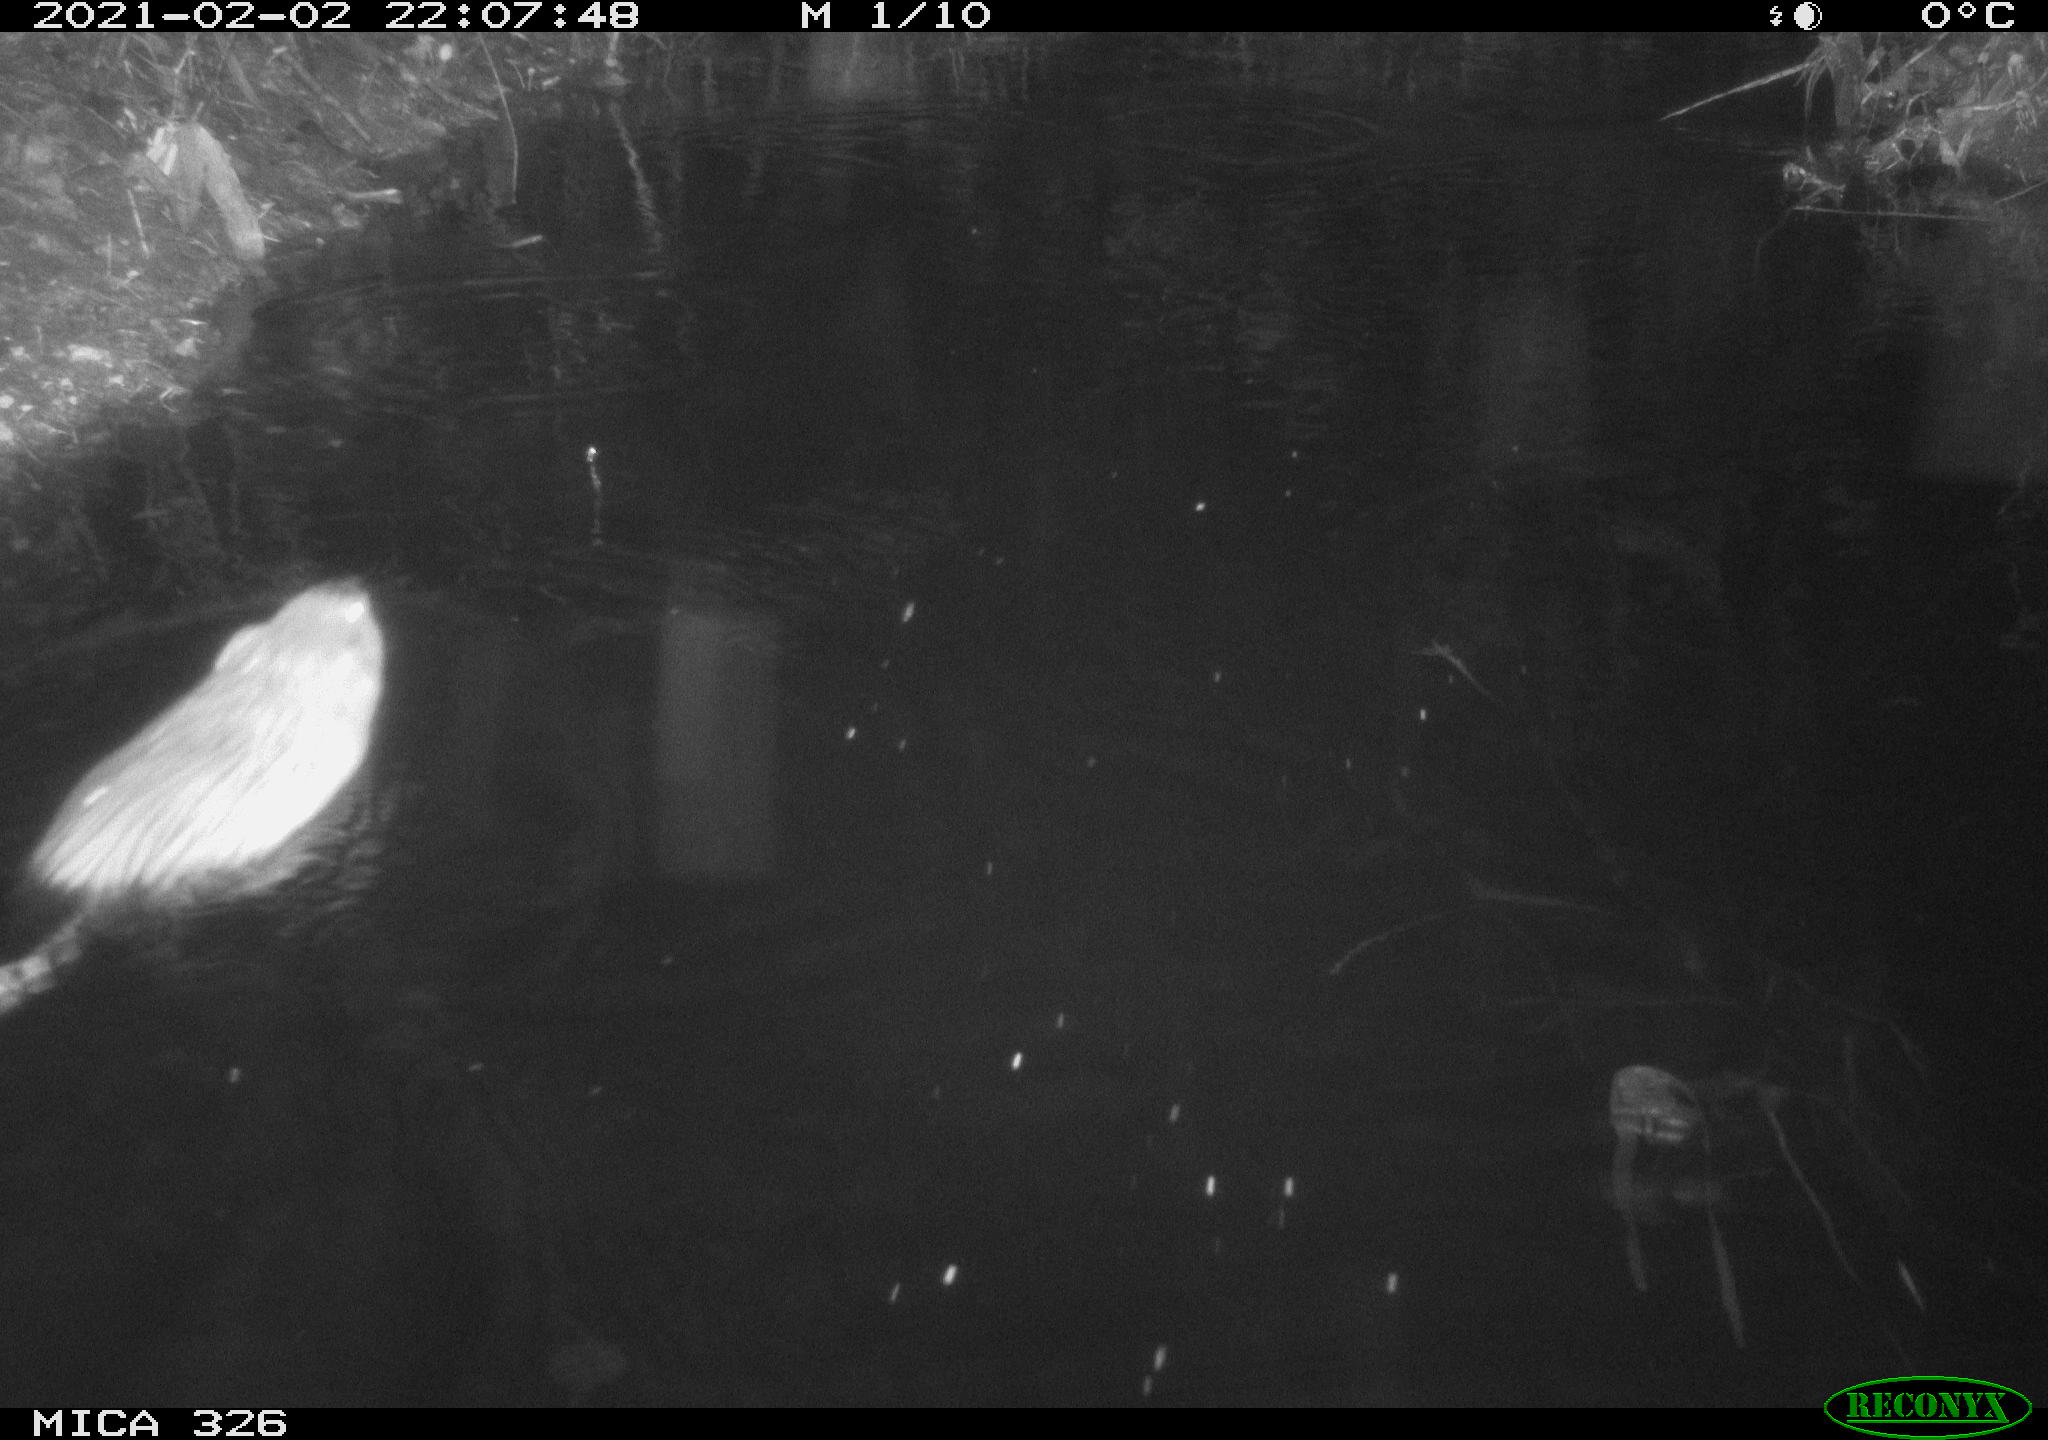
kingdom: Animalia
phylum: Chordata
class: Mammalia
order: Rodentia
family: Cricetidae
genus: Ondatra
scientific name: Ondatra zibethicus
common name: Muskrat
